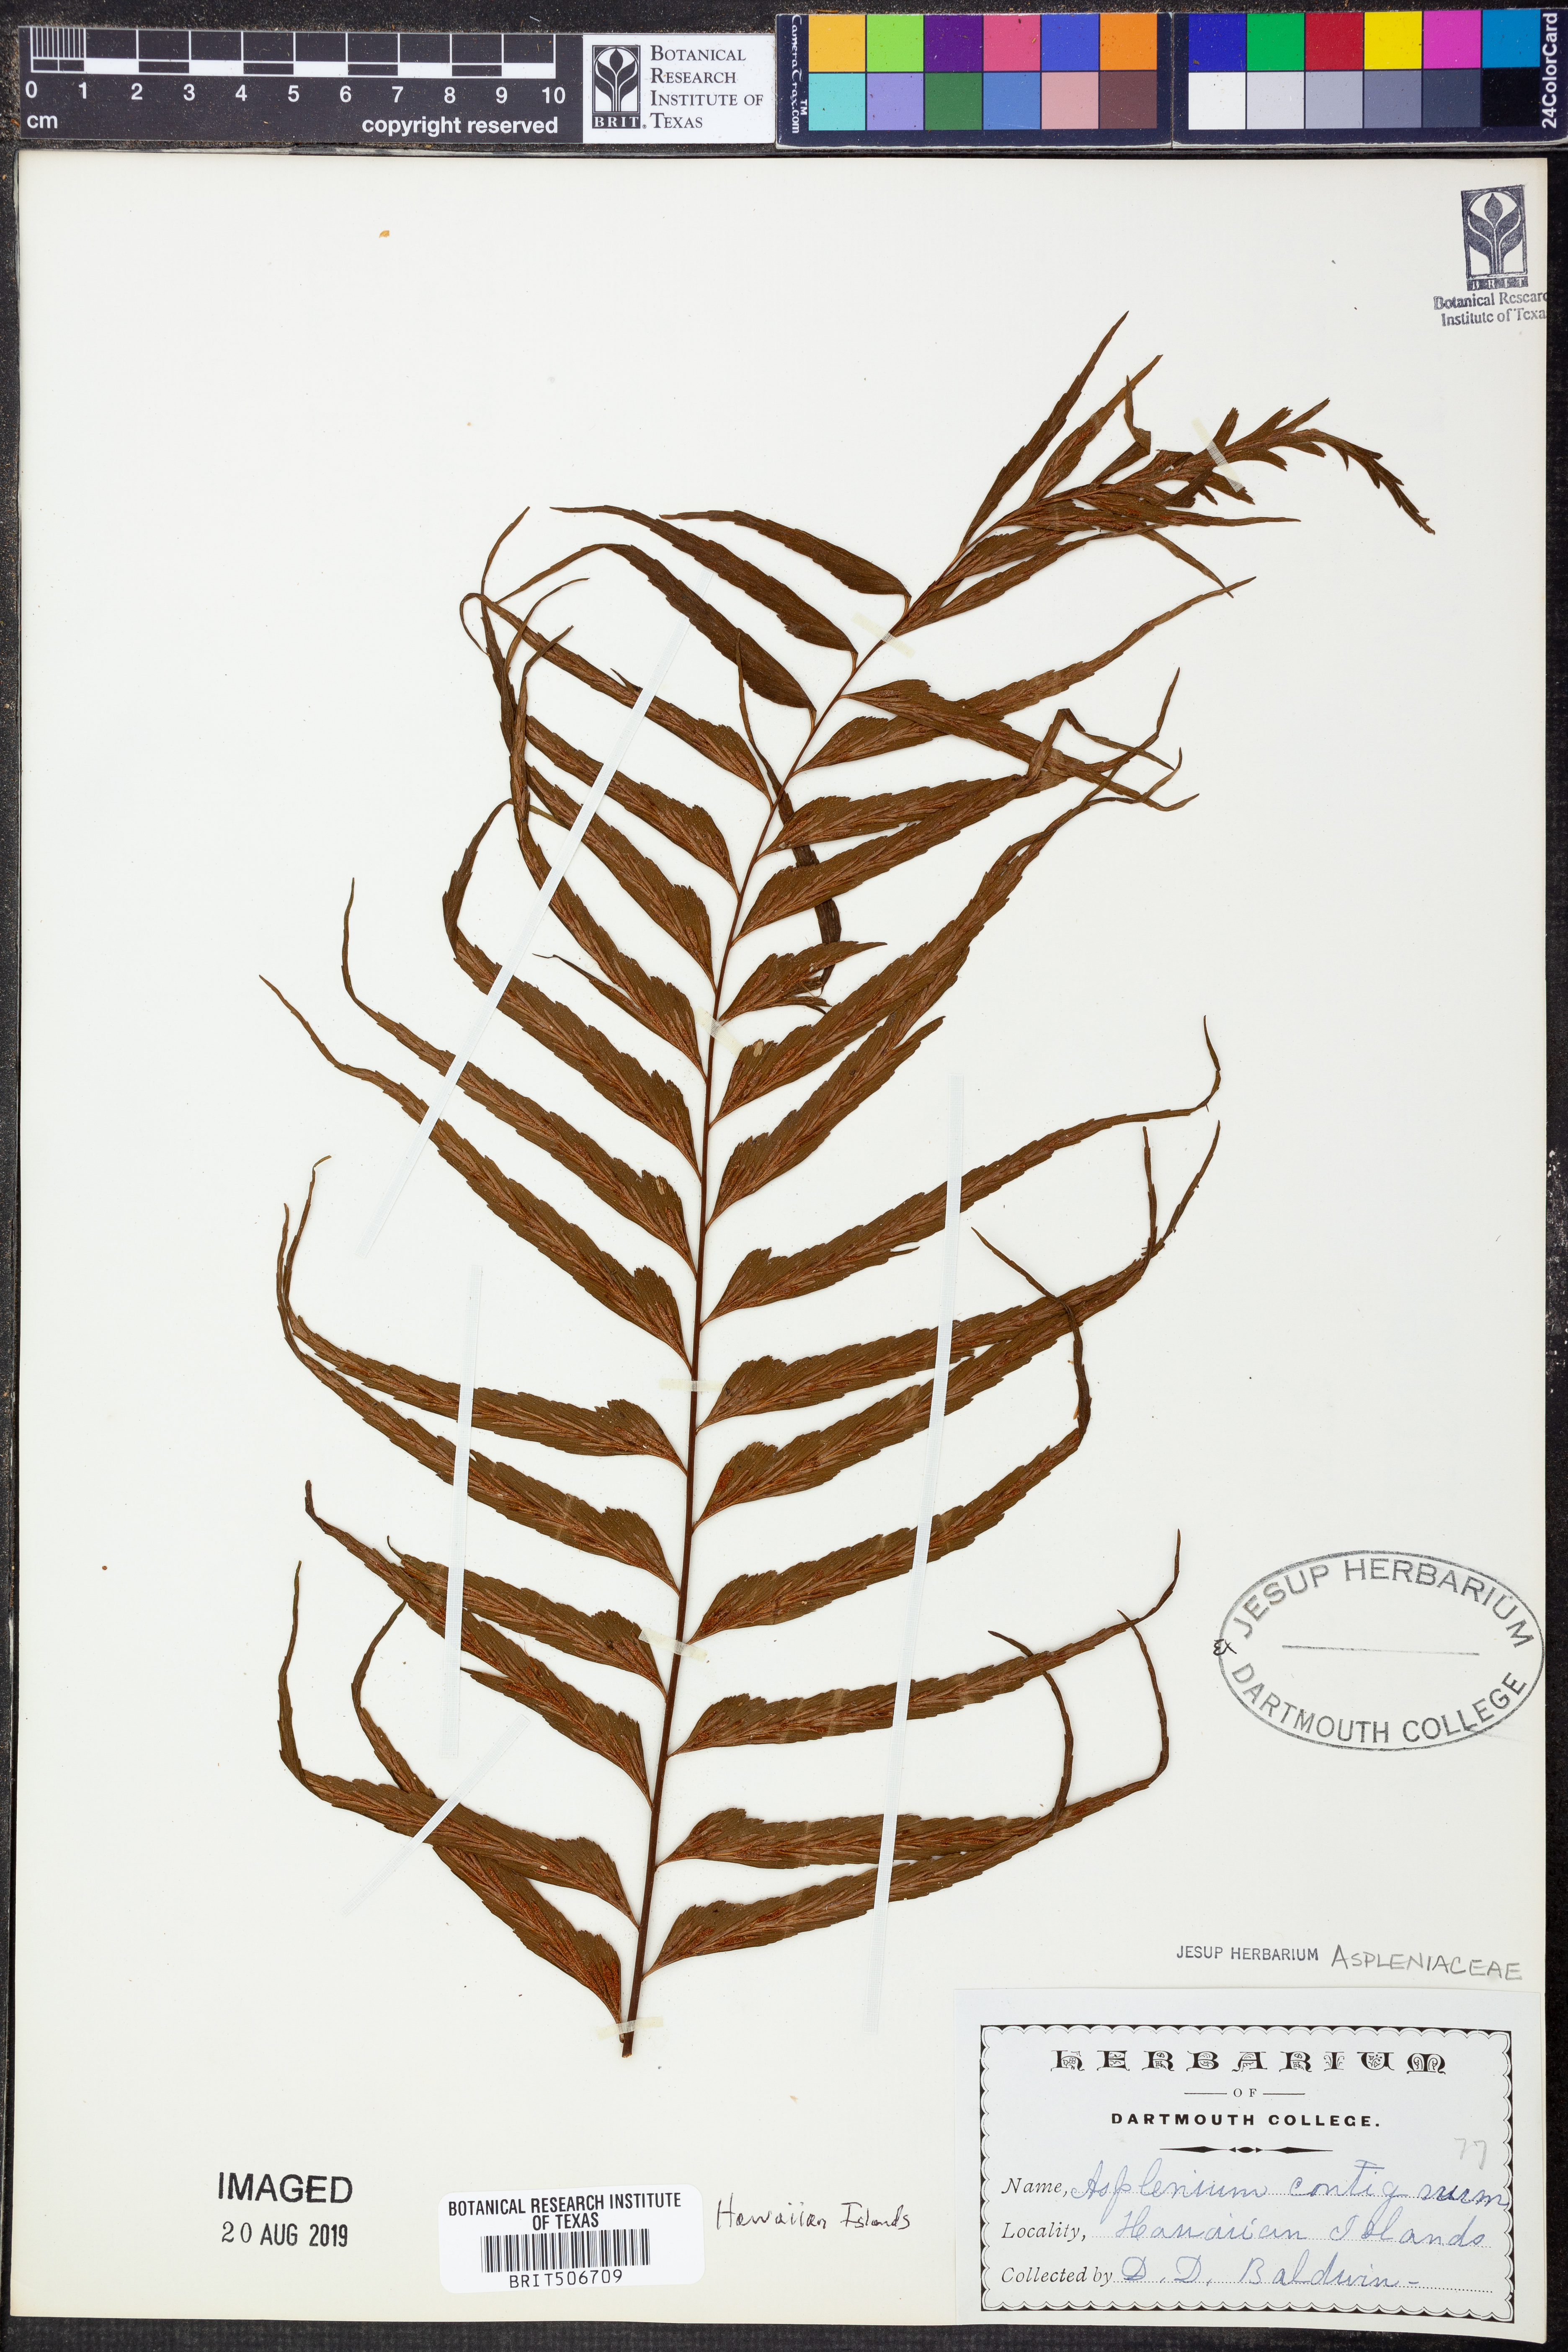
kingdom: Plantae
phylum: Tracheophyta
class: Polypodiopsida
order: Polypodiales
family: Aspleniaceae
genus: Asplenium
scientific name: Asplenium contiguum
